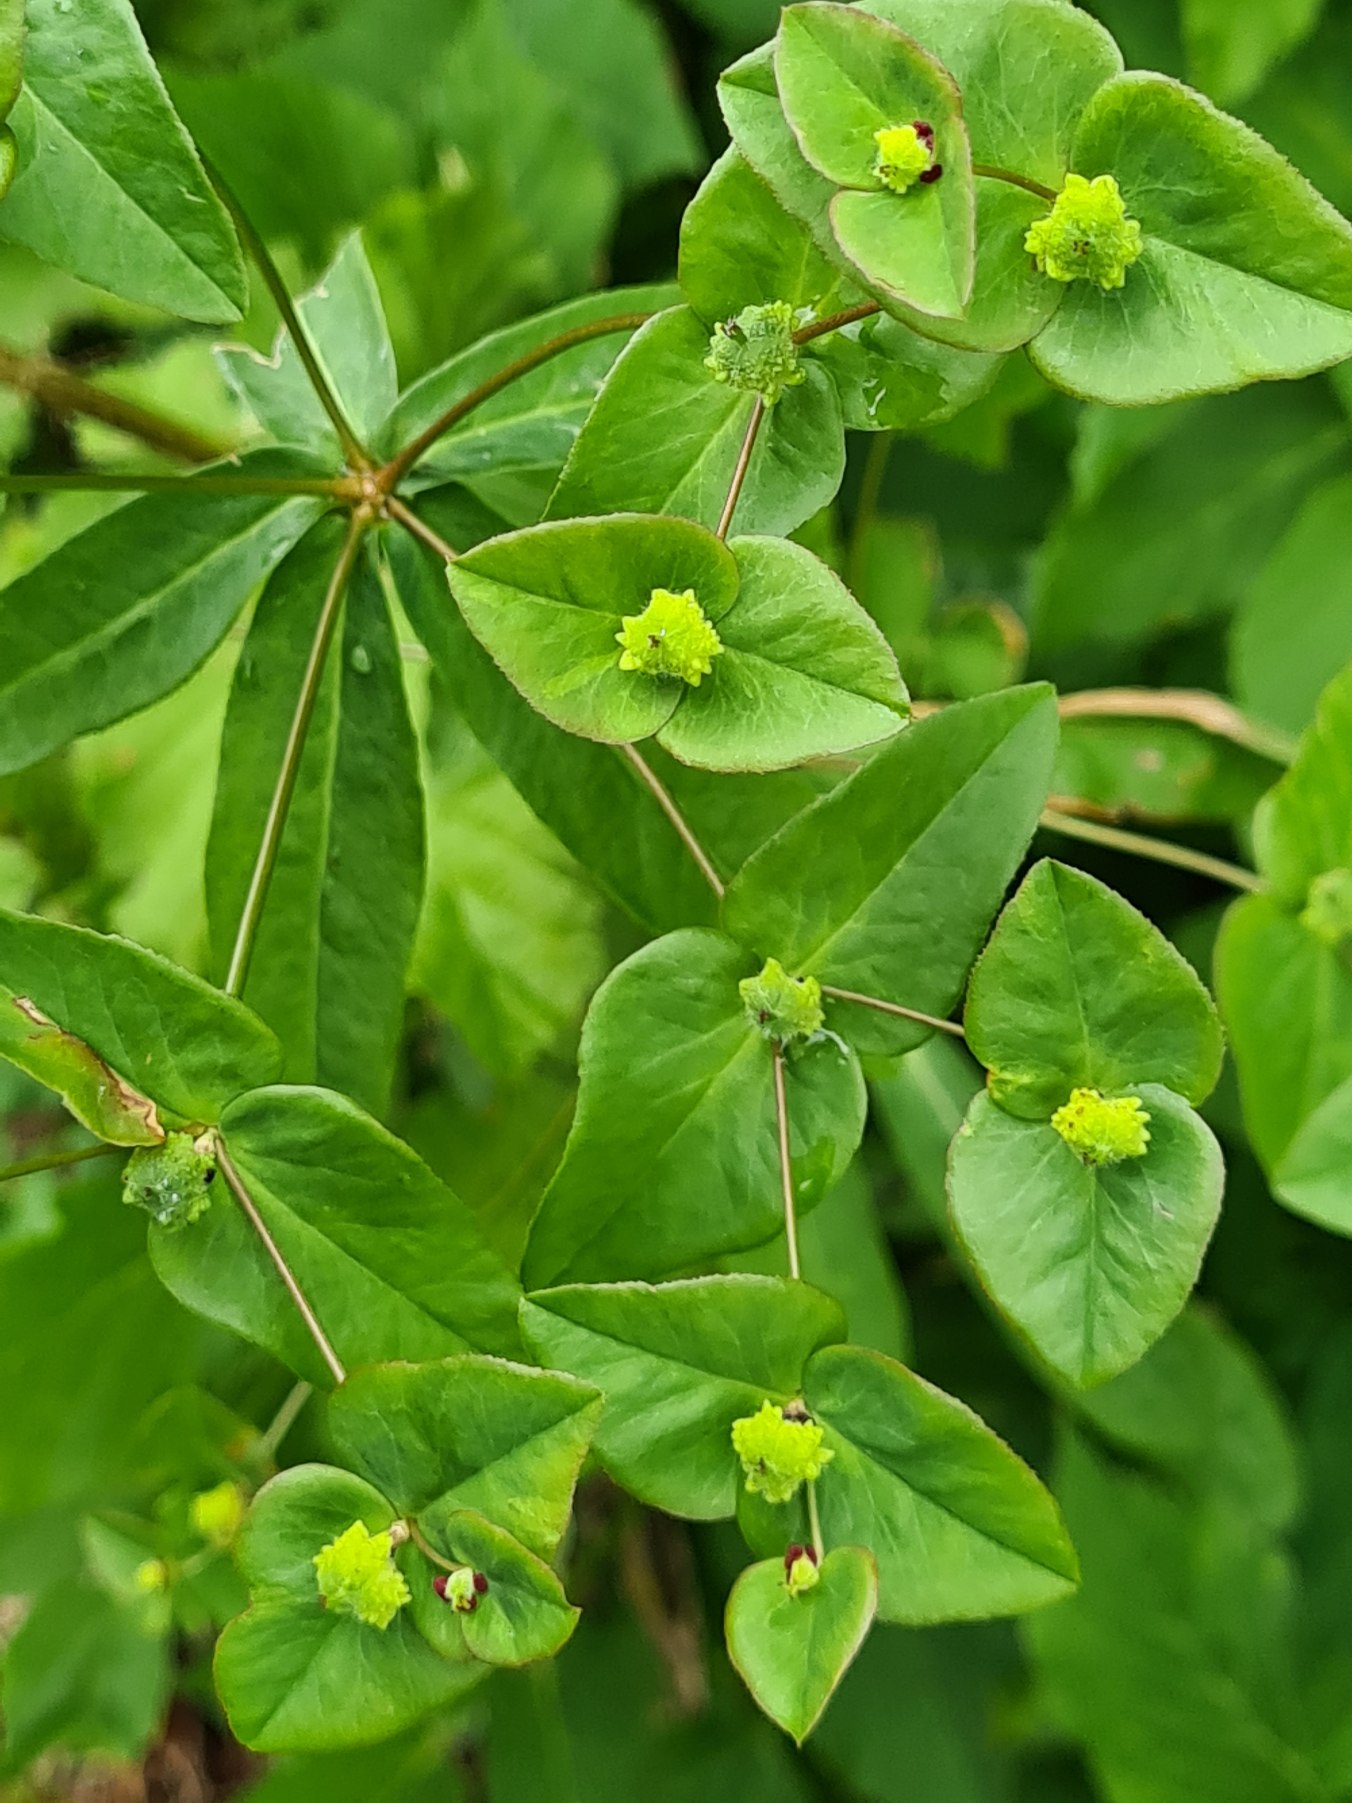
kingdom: Plantae
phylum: Tracheophyta
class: Magnoliopsida
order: Malpighiales
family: Euphorbiaceae
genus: Euphorbia
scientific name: Euphorbia dulcis
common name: Knold-vortemælk
